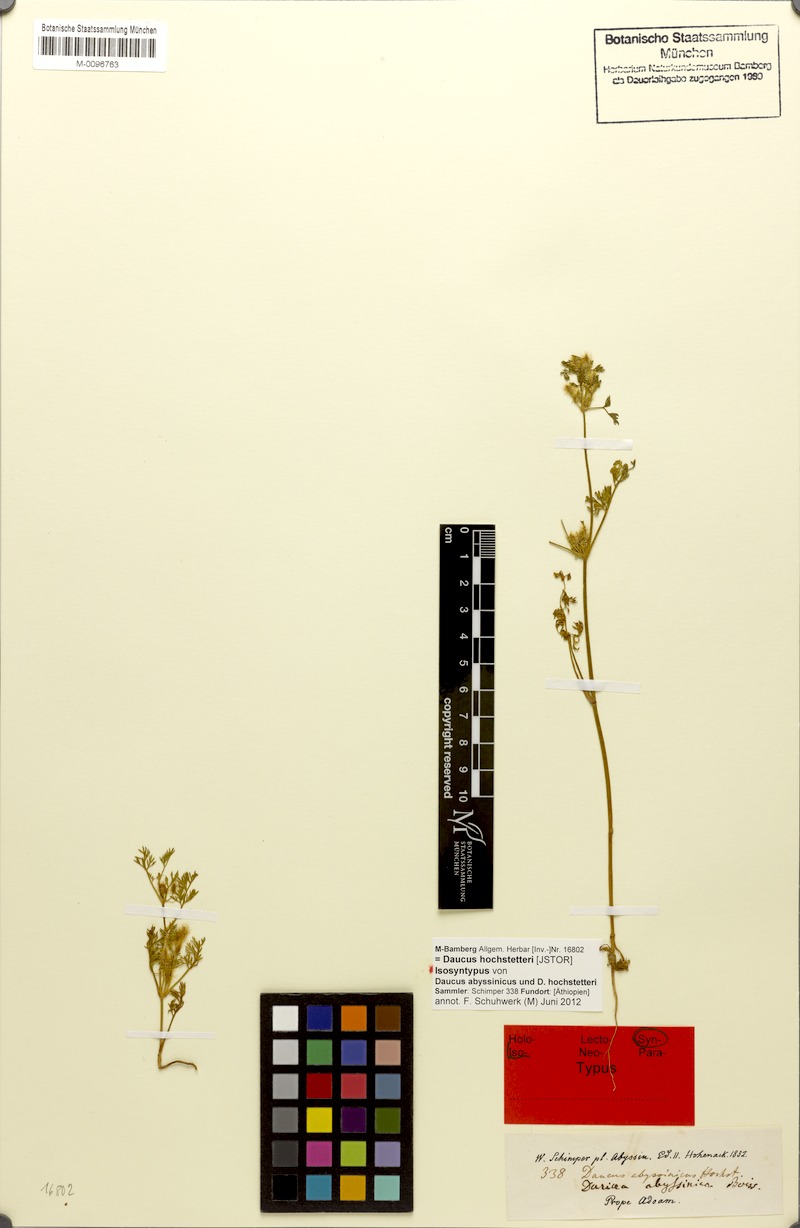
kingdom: Plantae
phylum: Tracheophyta
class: Magnoliopsida
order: Apiales
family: Apiaceae
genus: Daucus
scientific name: Daucus hochstetteri
